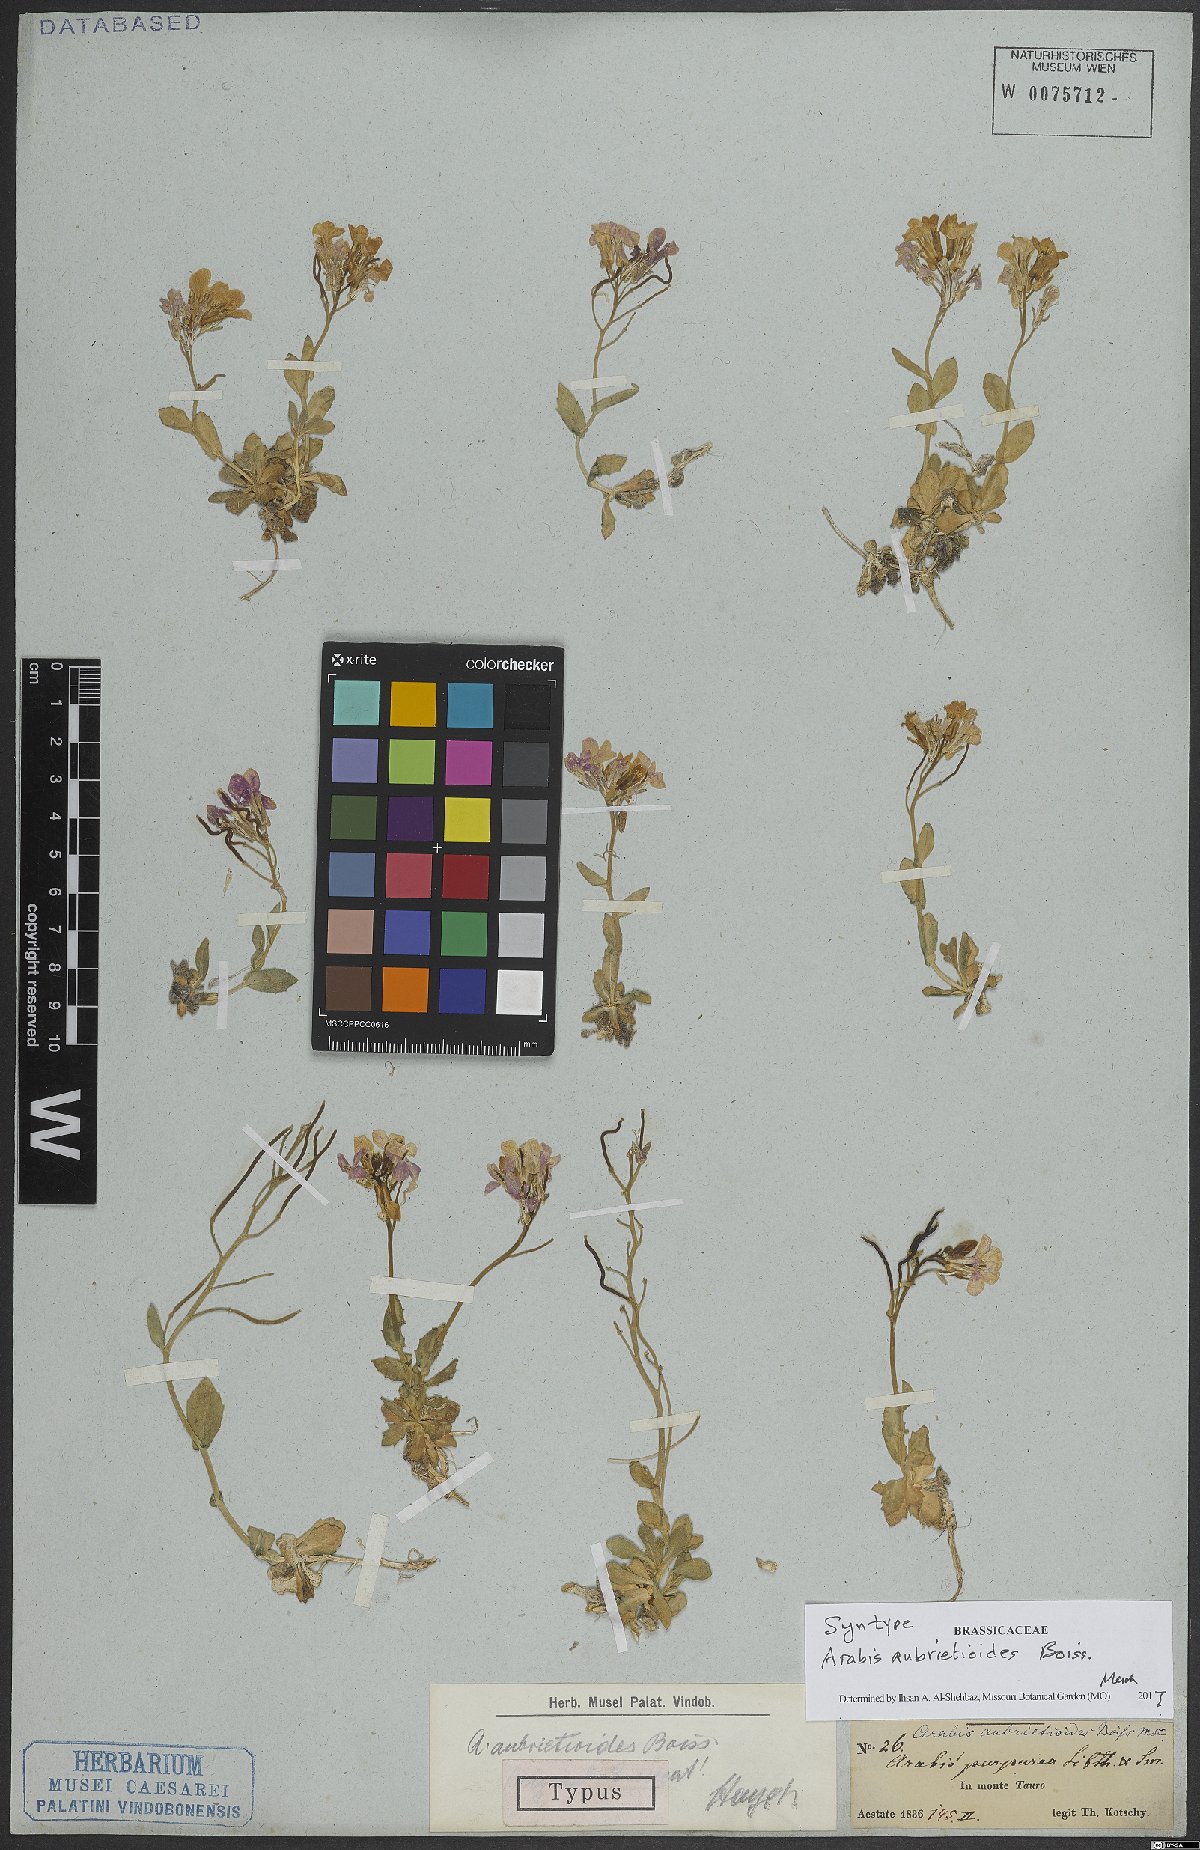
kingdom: Plantae
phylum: Tracheophyta
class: Magnoliopsida
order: Brassicales
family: Brassicaceae
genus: Arabis
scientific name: Arabis aubrietioides
